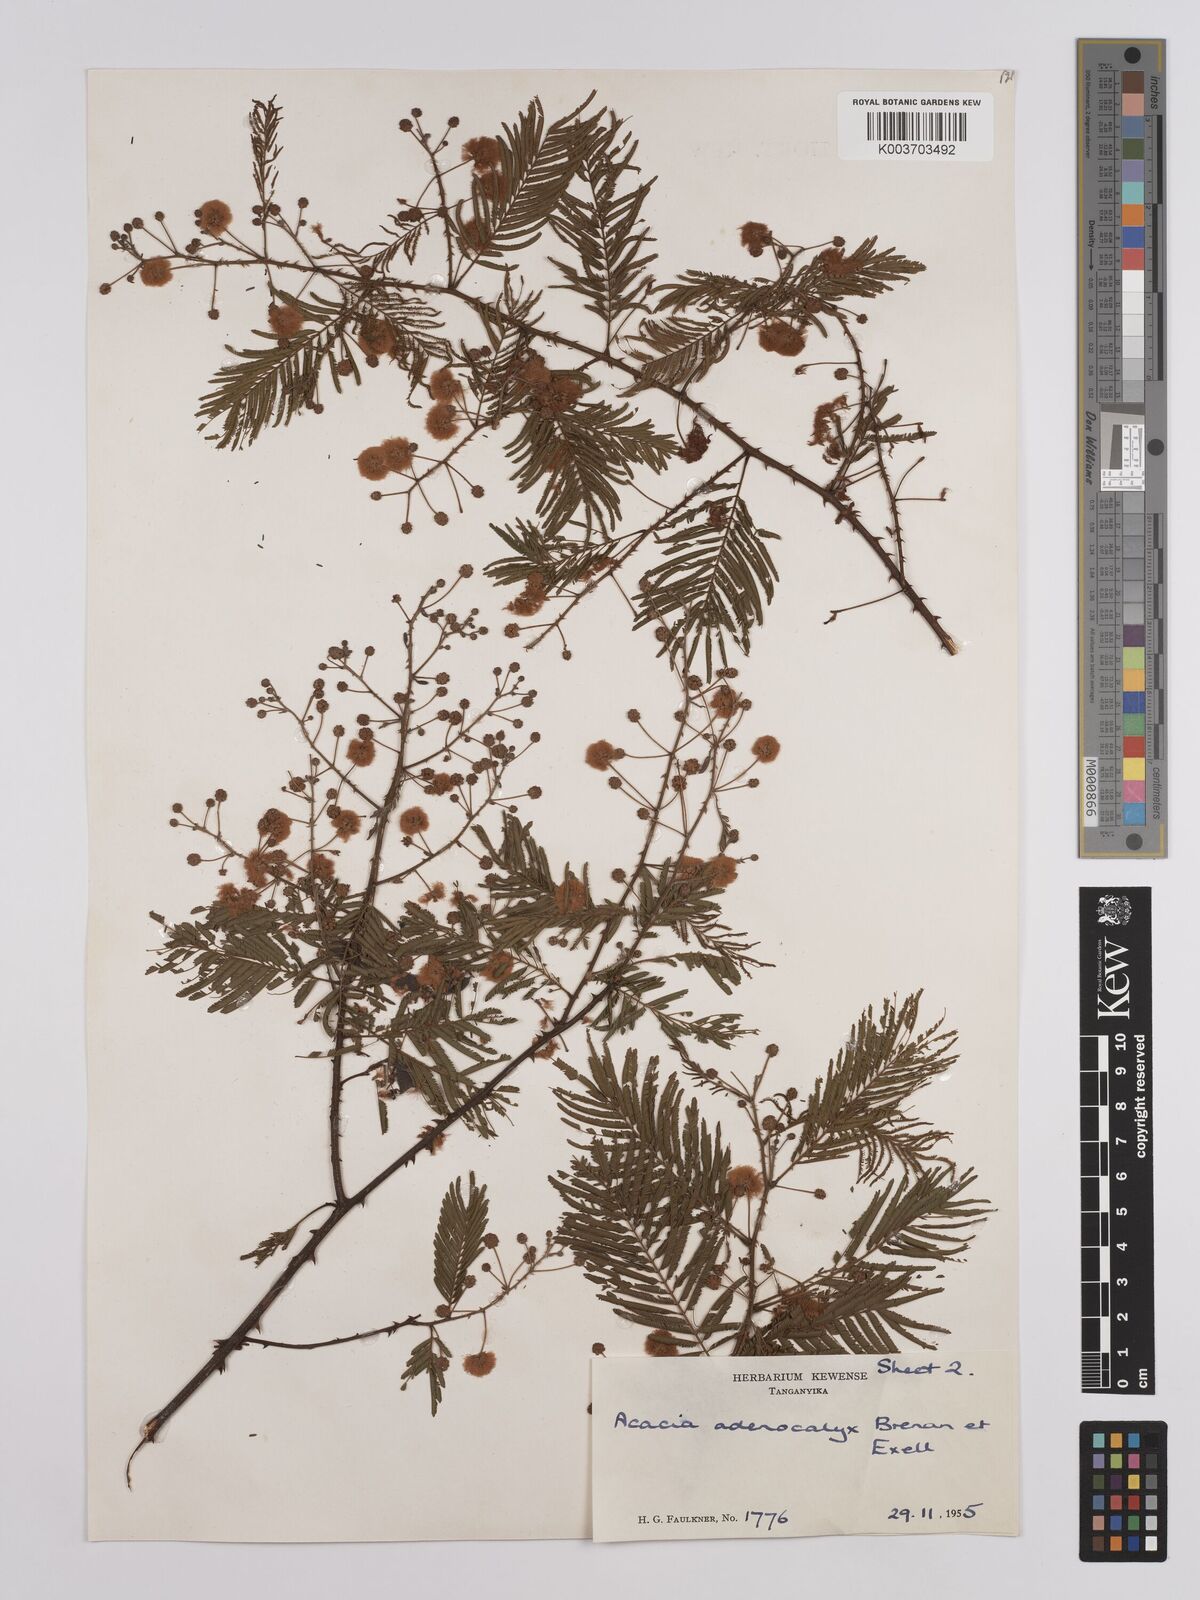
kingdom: Plantae
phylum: Tracheophyta
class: Magnoliopsida
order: Fabales
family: Fabaceae
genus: Senegalia
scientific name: Senegalia adenocalyx
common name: Pfurura
